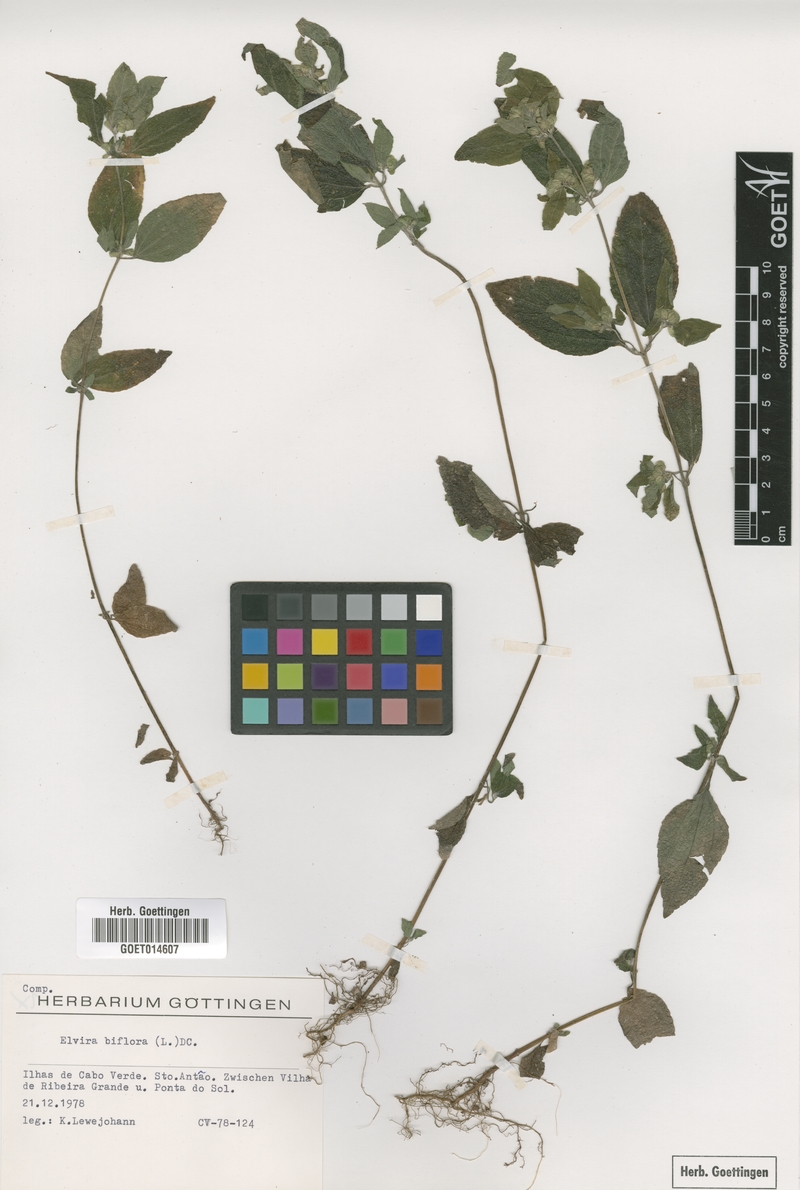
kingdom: Plantae
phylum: Tracheophyta
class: Magnoliopsida
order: Asterales
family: Asteraceae
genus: Delilia
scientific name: Delilia biflora
